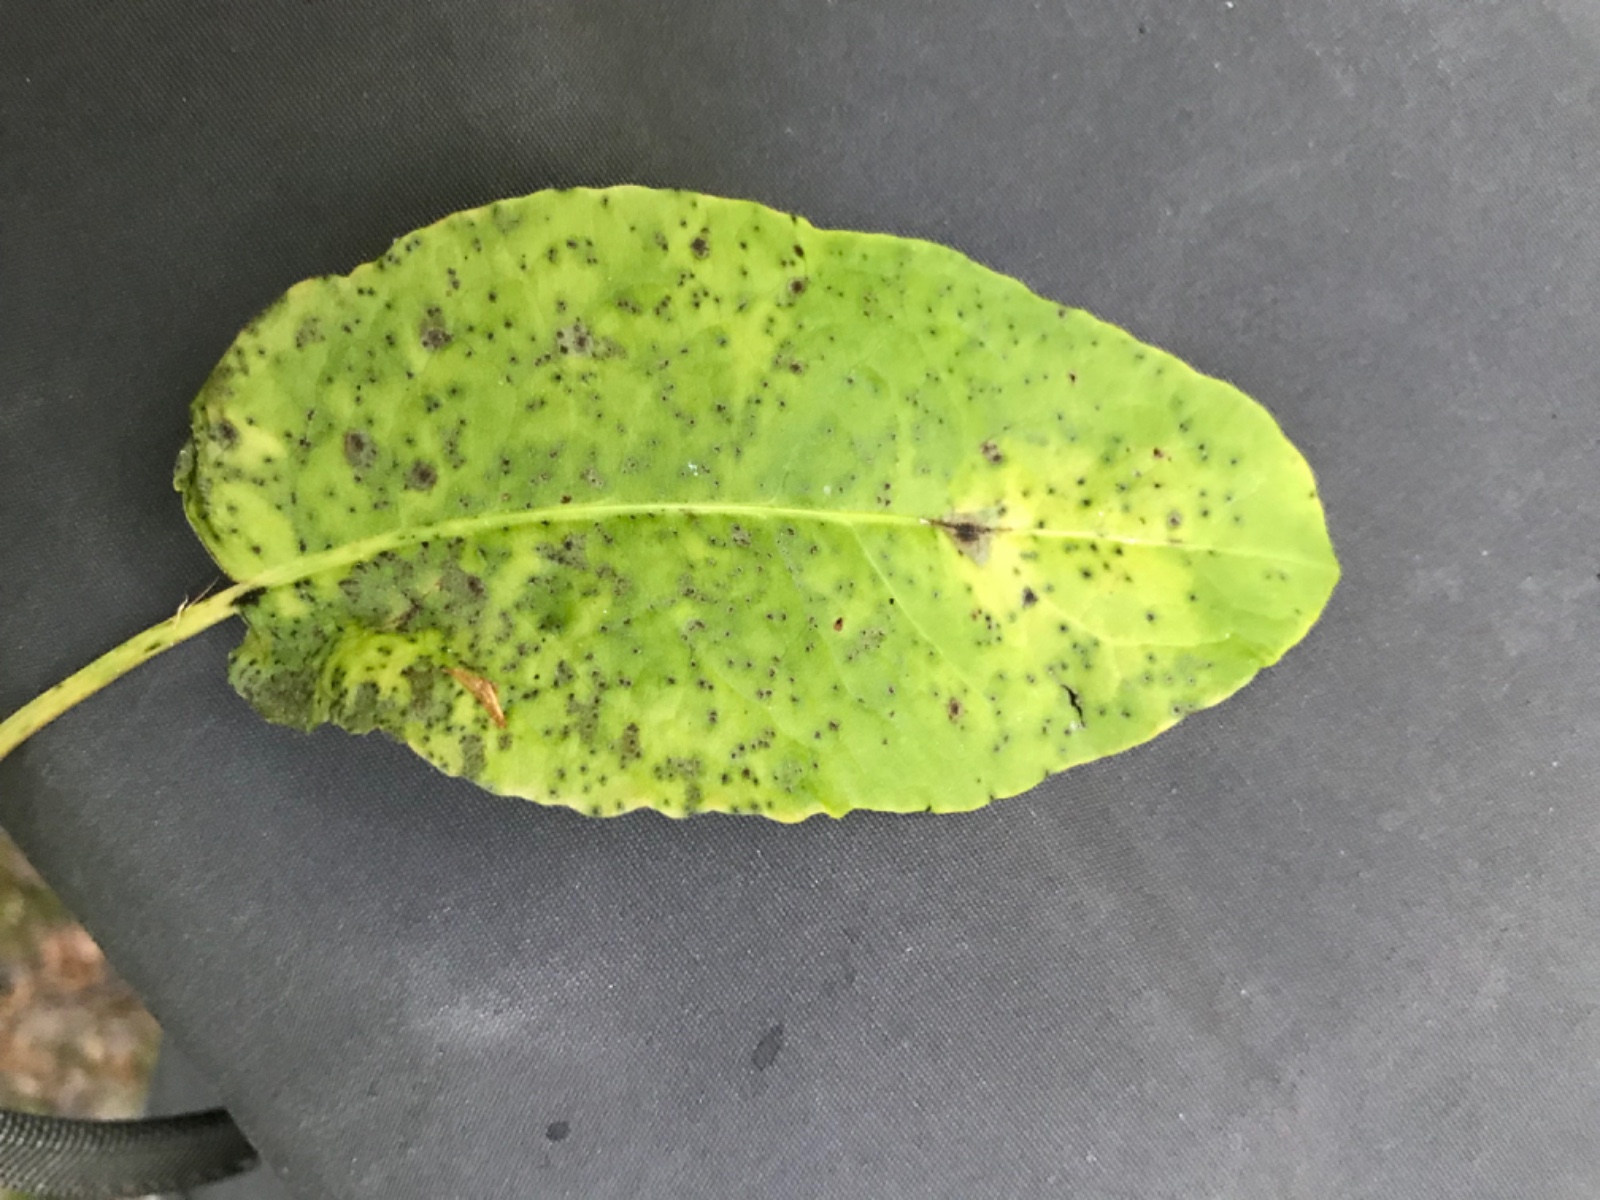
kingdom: Fungi
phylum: Ascomycota
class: Dothideomycetes
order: Venturiales
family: Venturiaceae
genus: Venturia
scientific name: Venturia rumicis
